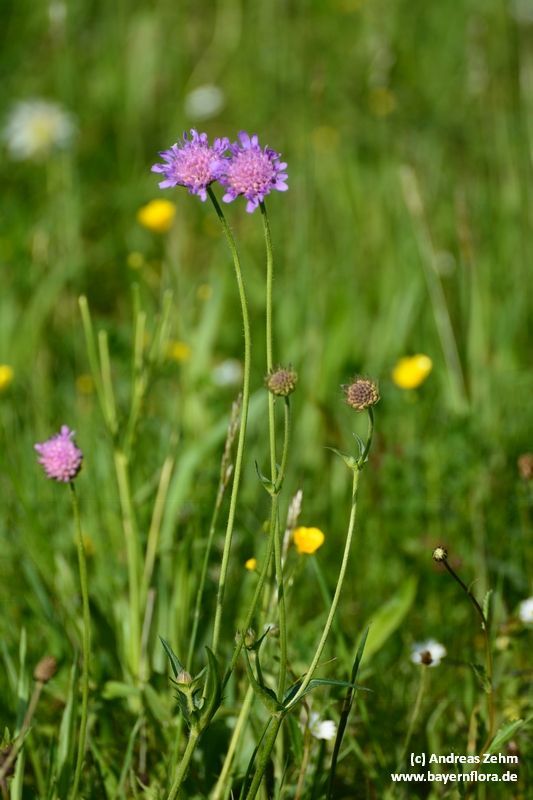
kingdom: Plantae
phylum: Tracheophyta
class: Magnoliopsida
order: Dipsacales
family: Caprifoliaceae
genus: Knautia
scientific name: Knautia arvensis
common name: Field scabiosa
